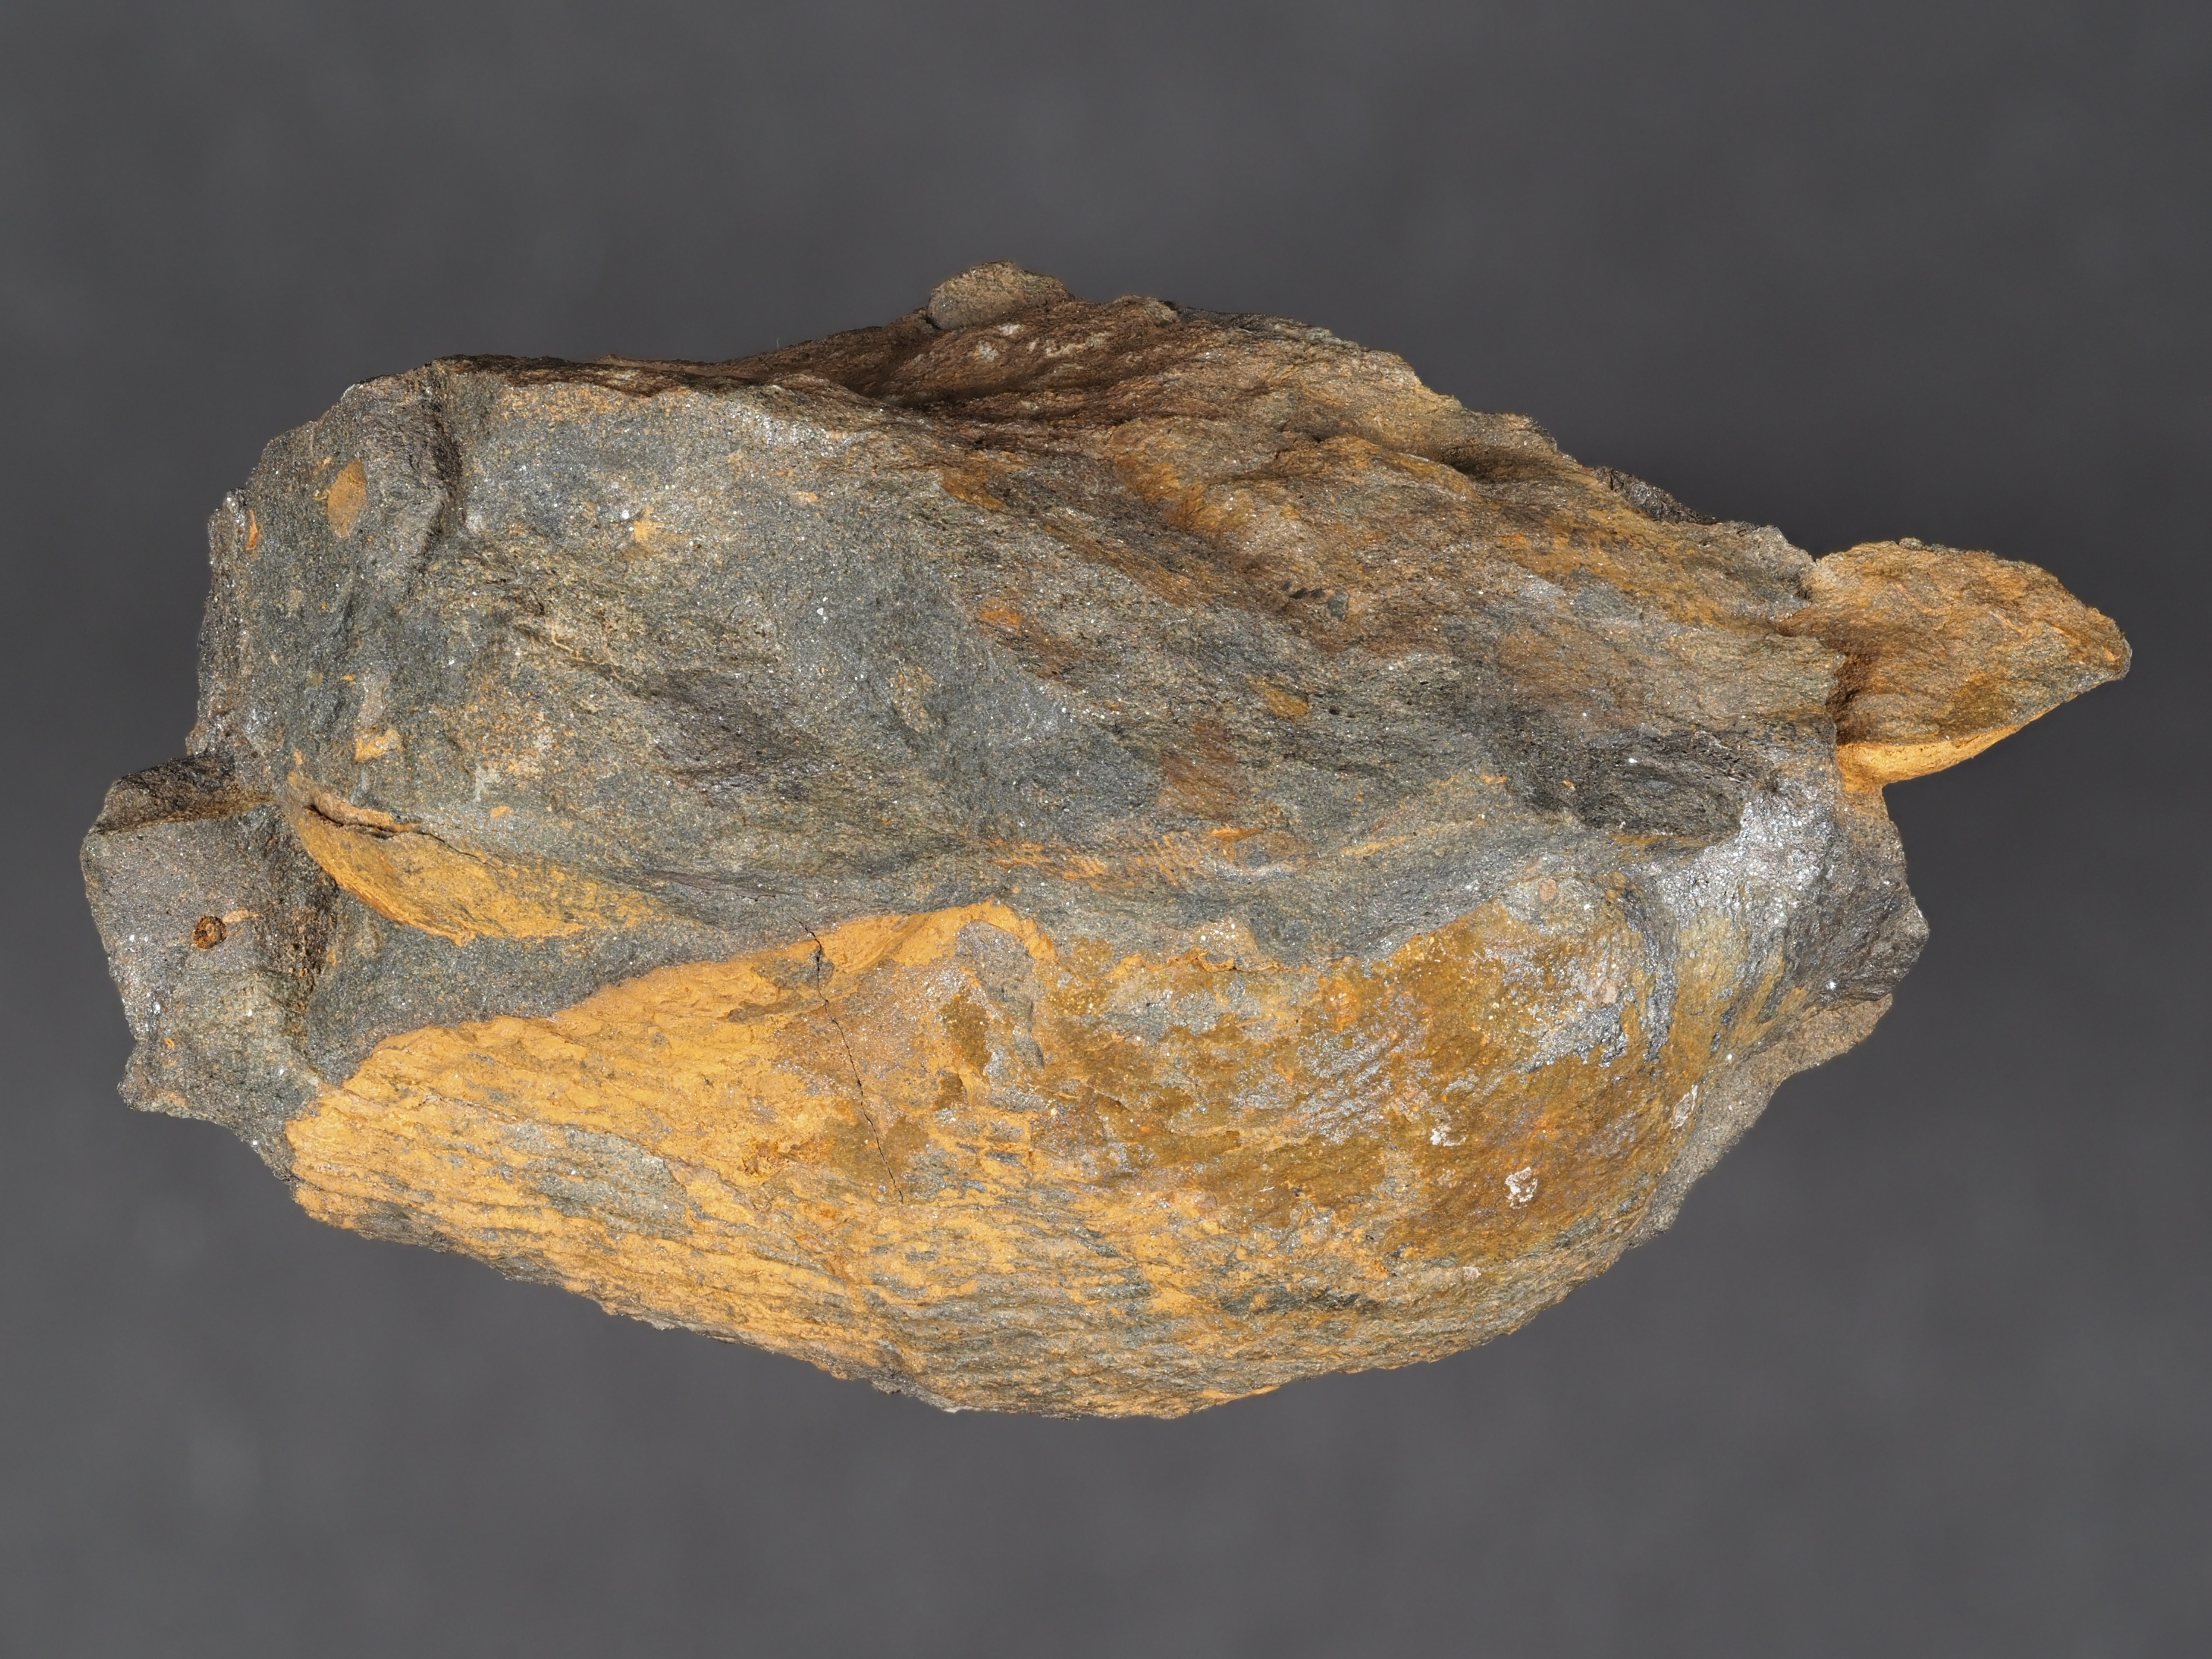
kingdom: Animalia
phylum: Mollusca
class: Bivalvia
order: Ostreida
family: Pterineidae
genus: Limoptera
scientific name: Limoptera
